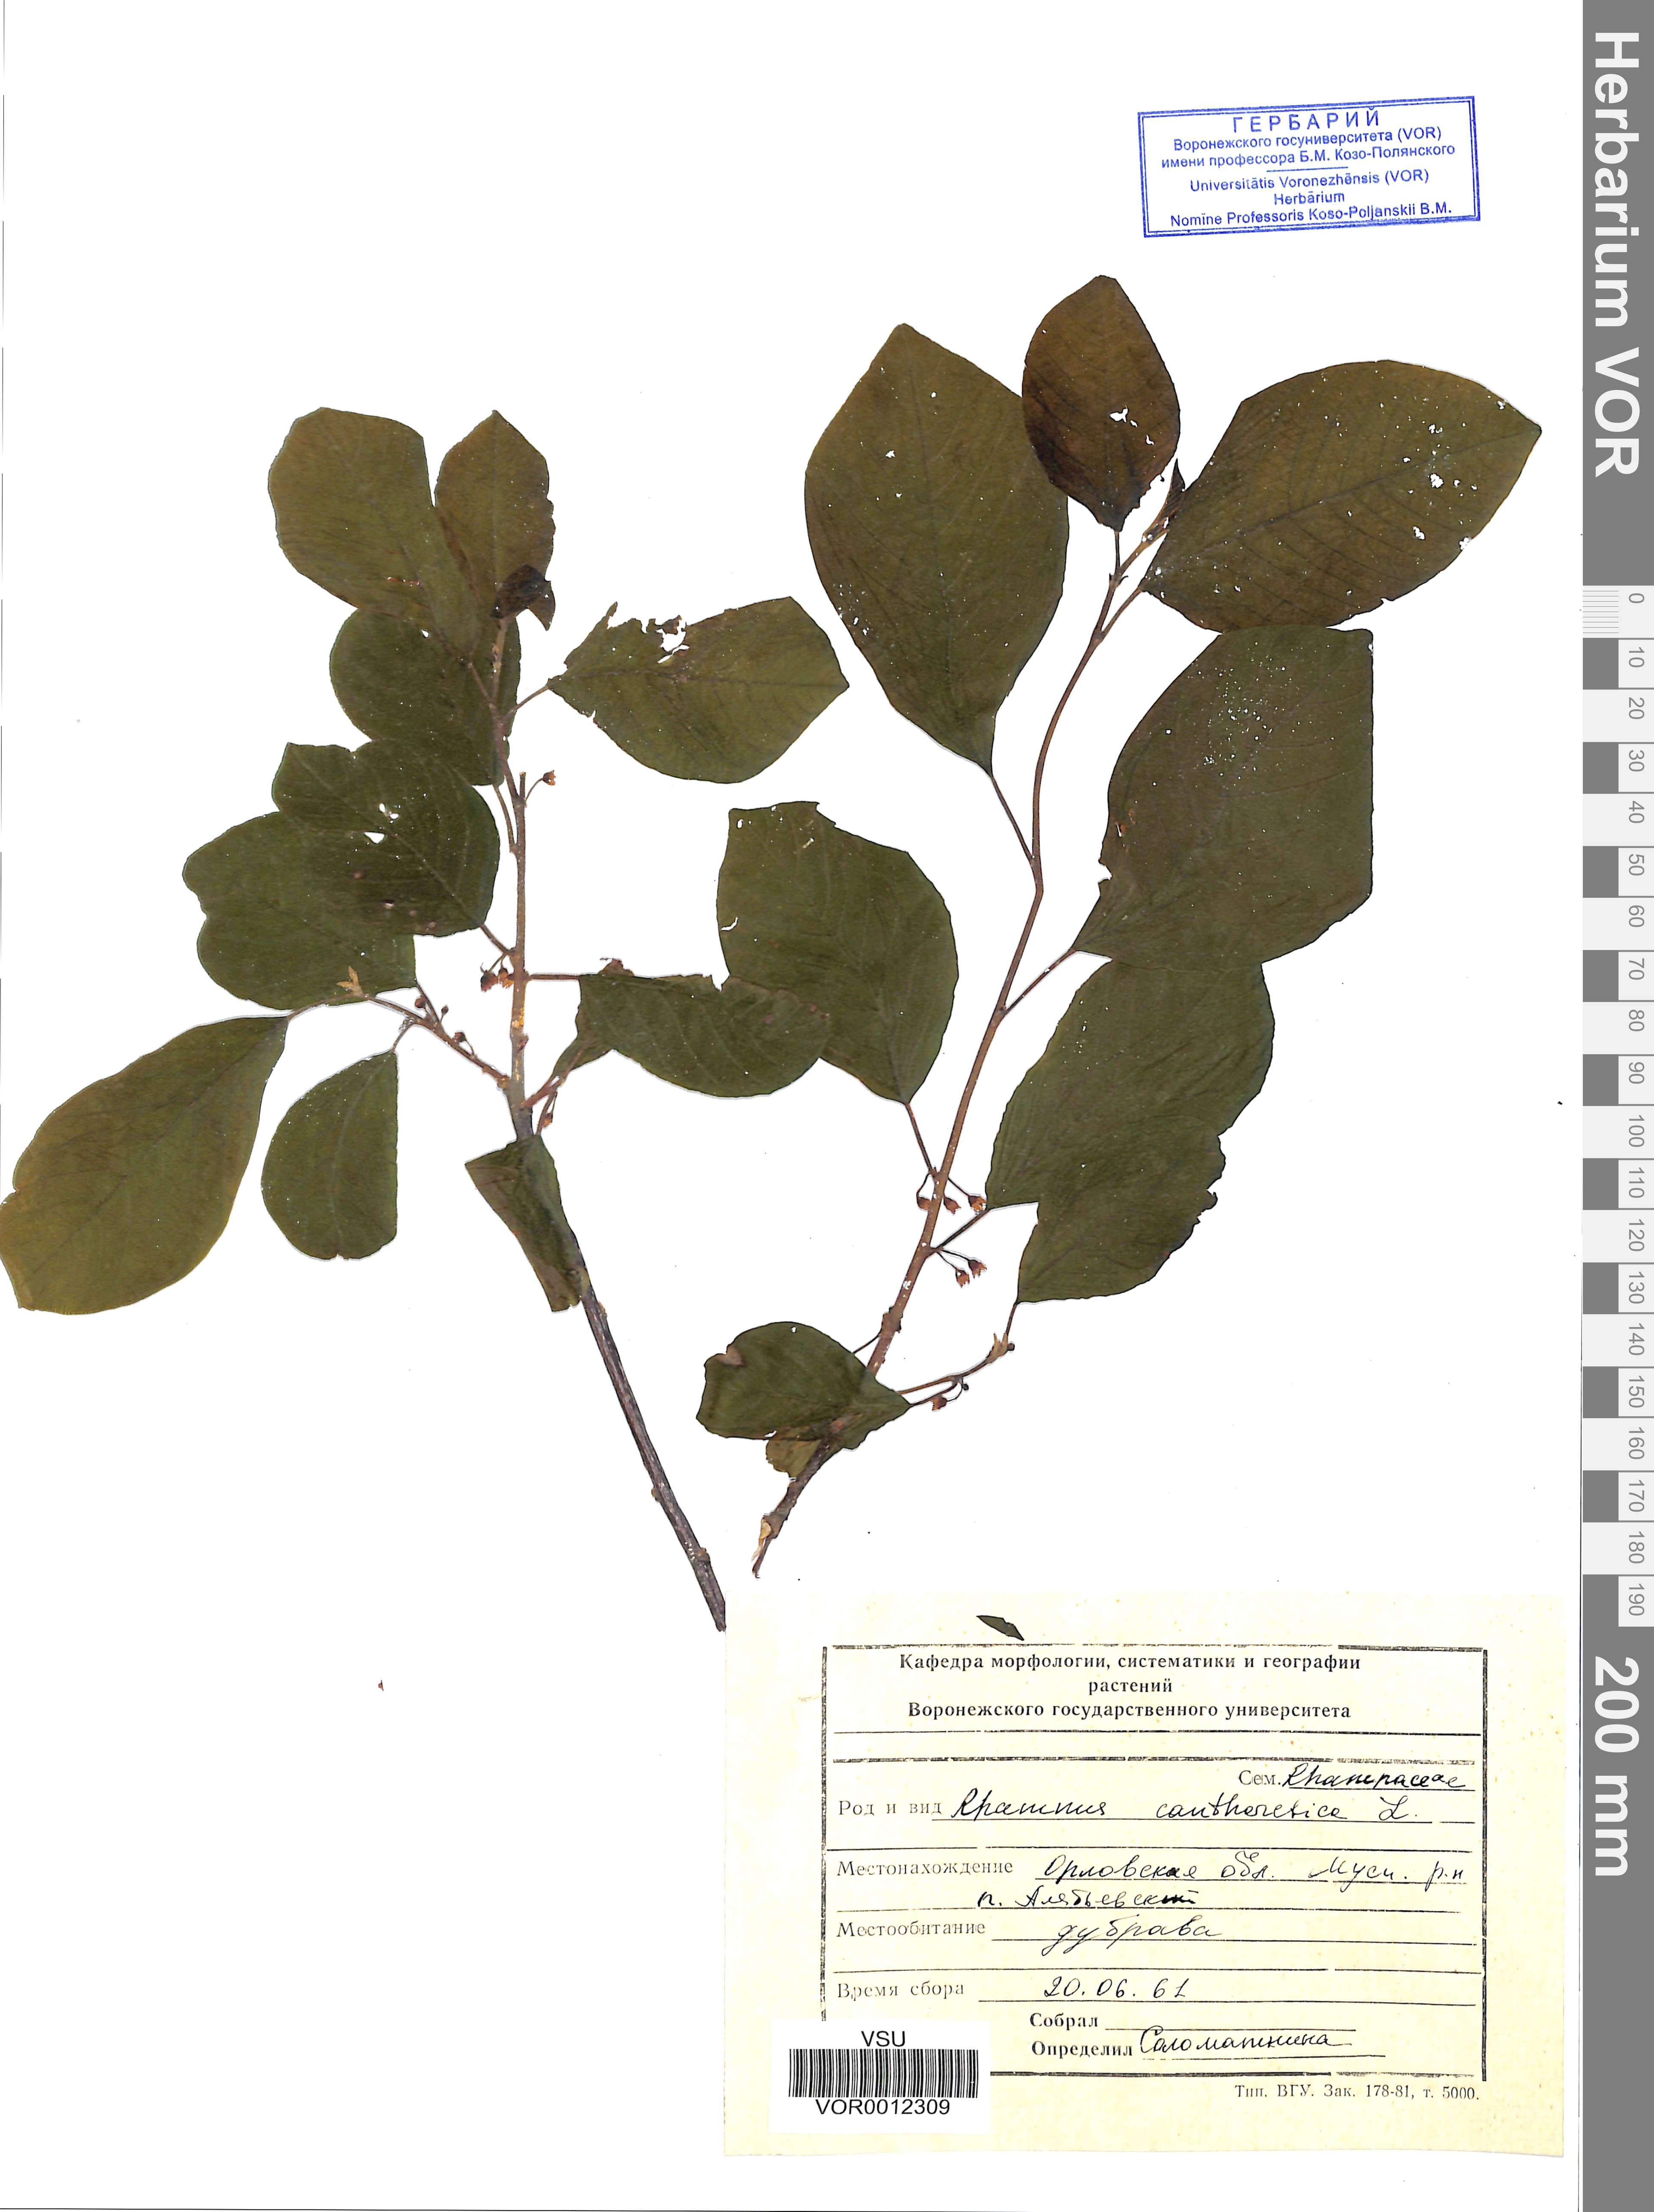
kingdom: Plantae
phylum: Tracheophyta
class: Magnoliopsida
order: Rosales
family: Rhamnaceae
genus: Rhamnus
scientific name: Rhamnus cathartica
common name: Common buckthorn
